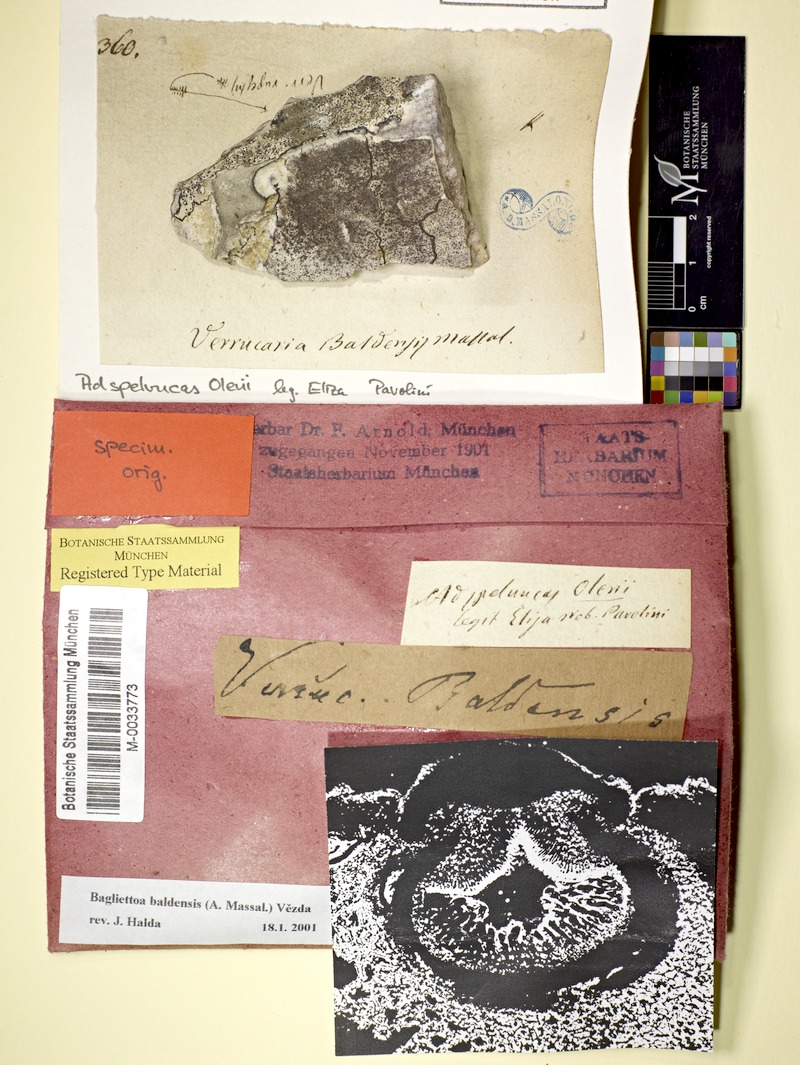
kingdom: Fungi
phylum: Ascomycota
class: Eurotiomycetes
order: Verrucariales
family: Verrucariaceae
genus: Bagliettoa
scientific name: Bagliettoa baldensis
